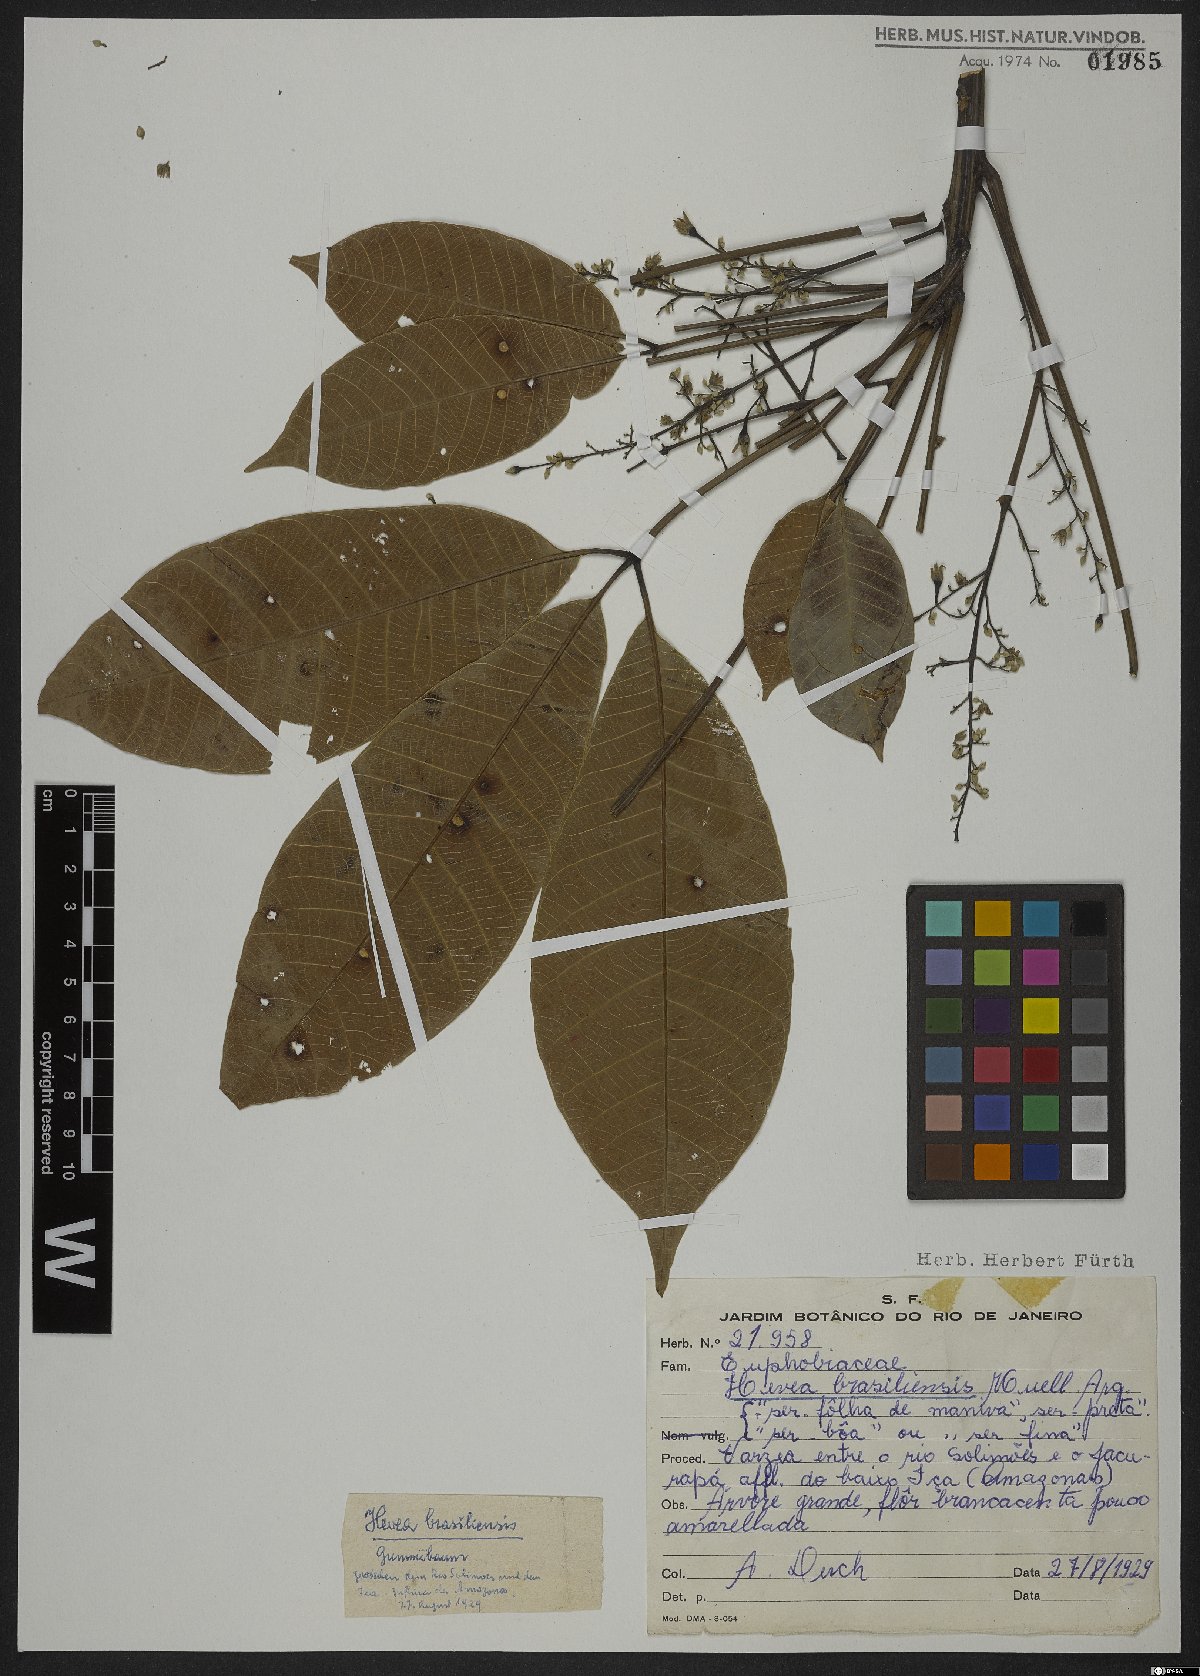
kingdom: Plantae
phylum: Tracheophyta
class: Magnoliopsida
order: Malpighiales
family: Euphorbiaceae
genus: Hevea
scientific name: Hevea brasiliensis
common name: Natural rubber
